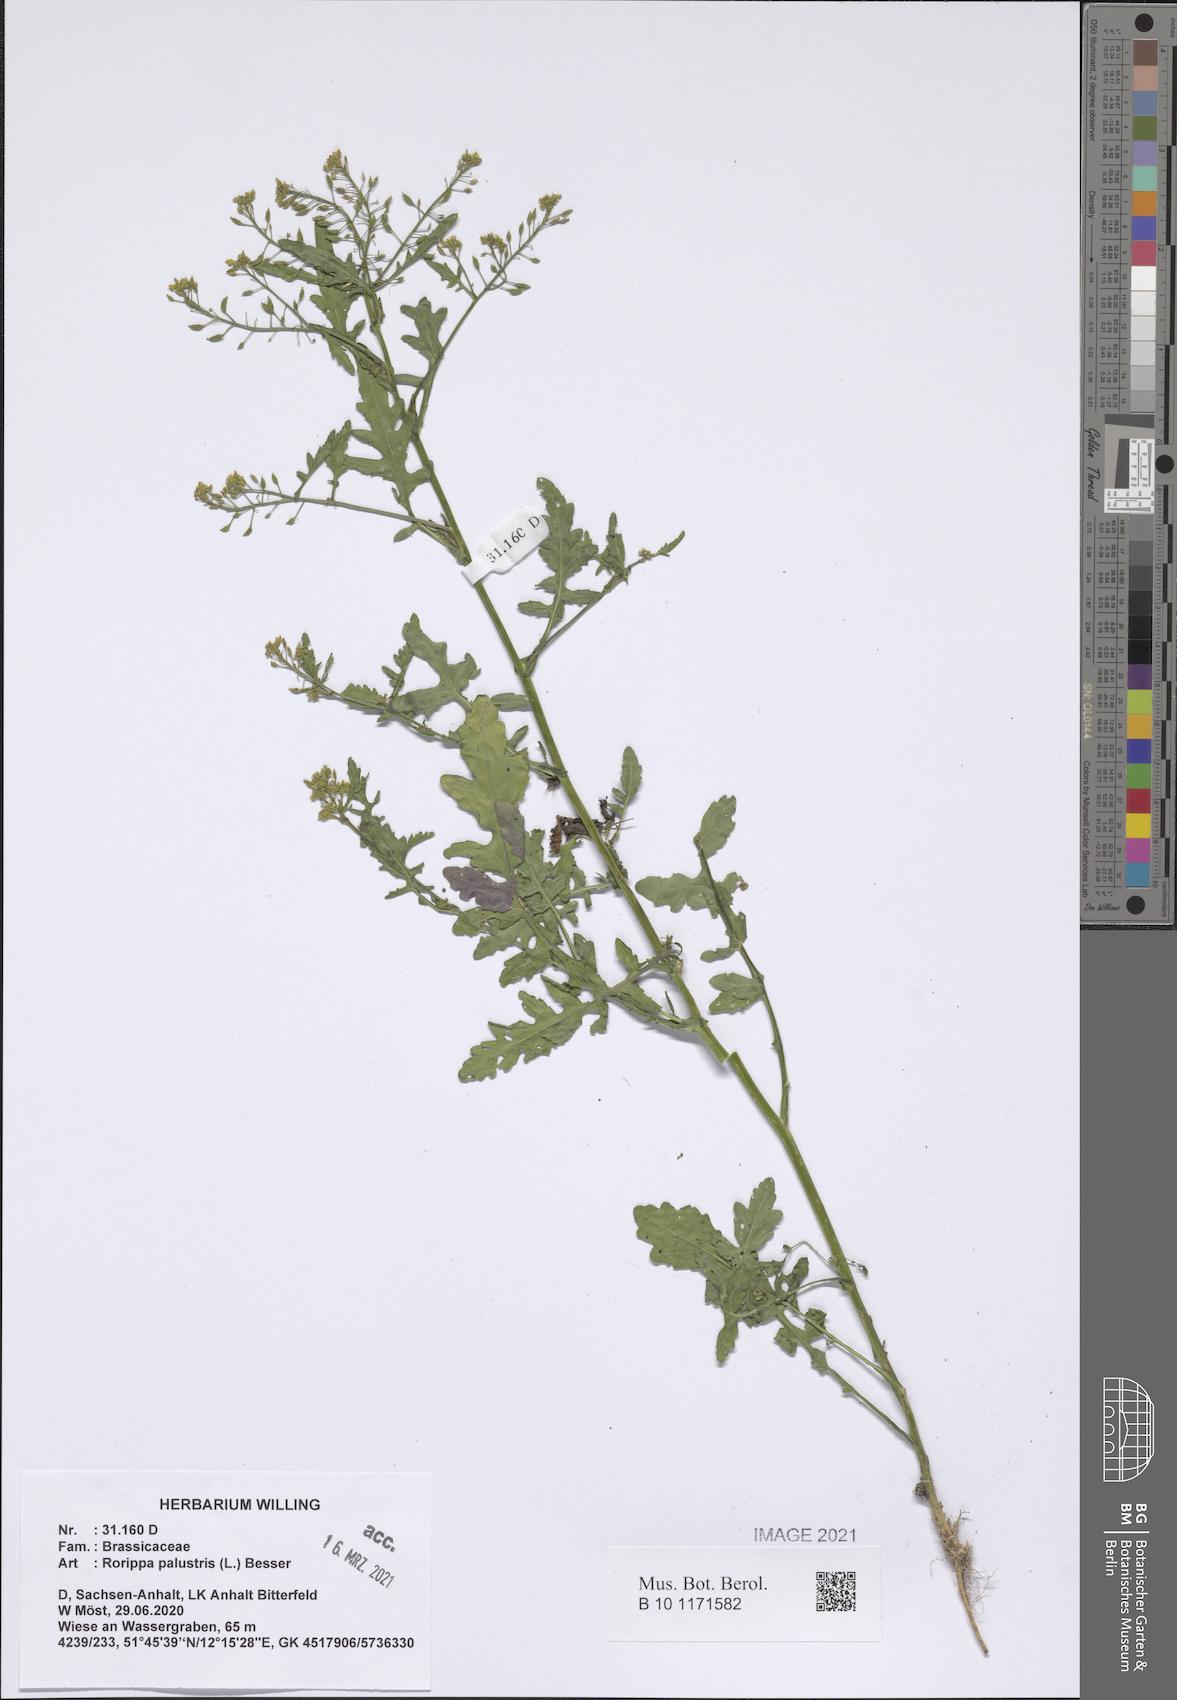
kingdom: Plantae
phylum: Tracheophyta
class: Magnoliopsida
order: Brassicales
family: Brassicaceae
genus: Rorippa
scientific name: Rorippa palustris
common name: Marsh yellow-cress
